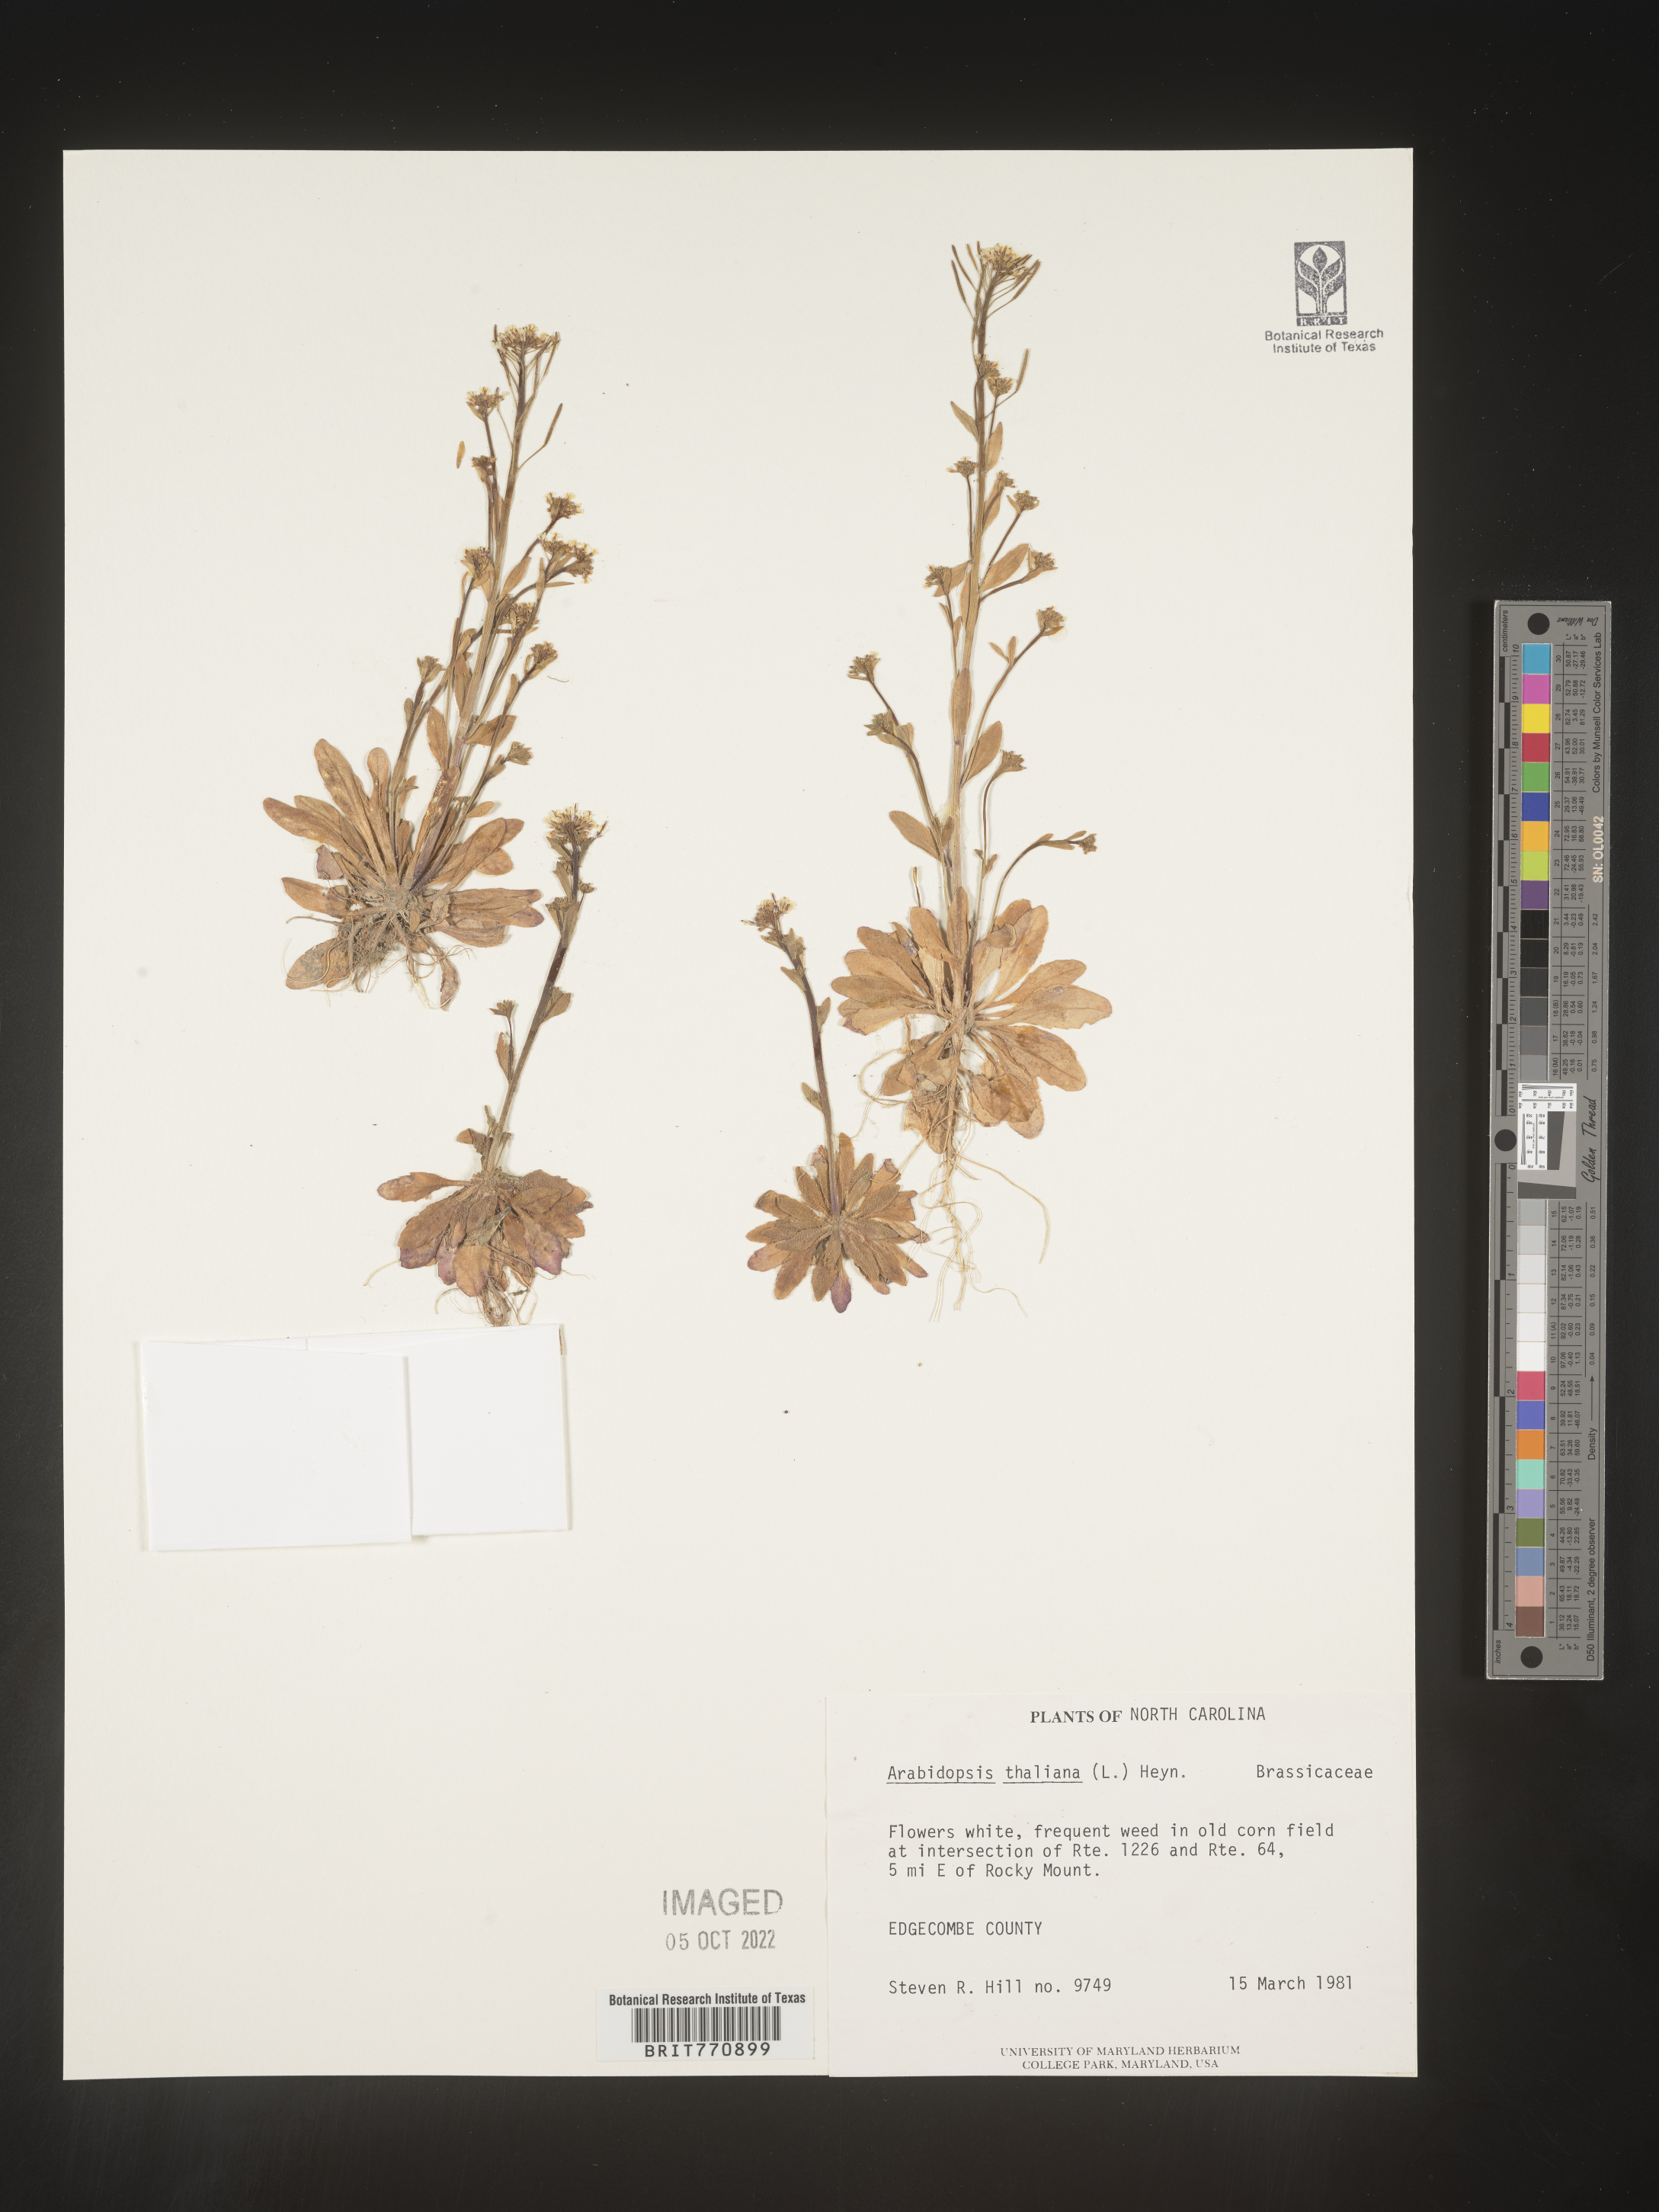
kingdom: Plantae
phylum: Tracheophyta
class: Magnoliopsida
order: Brassicales
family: Brassicaceae
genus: Arabidopsis
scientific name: Arabidopsis thaliana
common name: Thale cress
